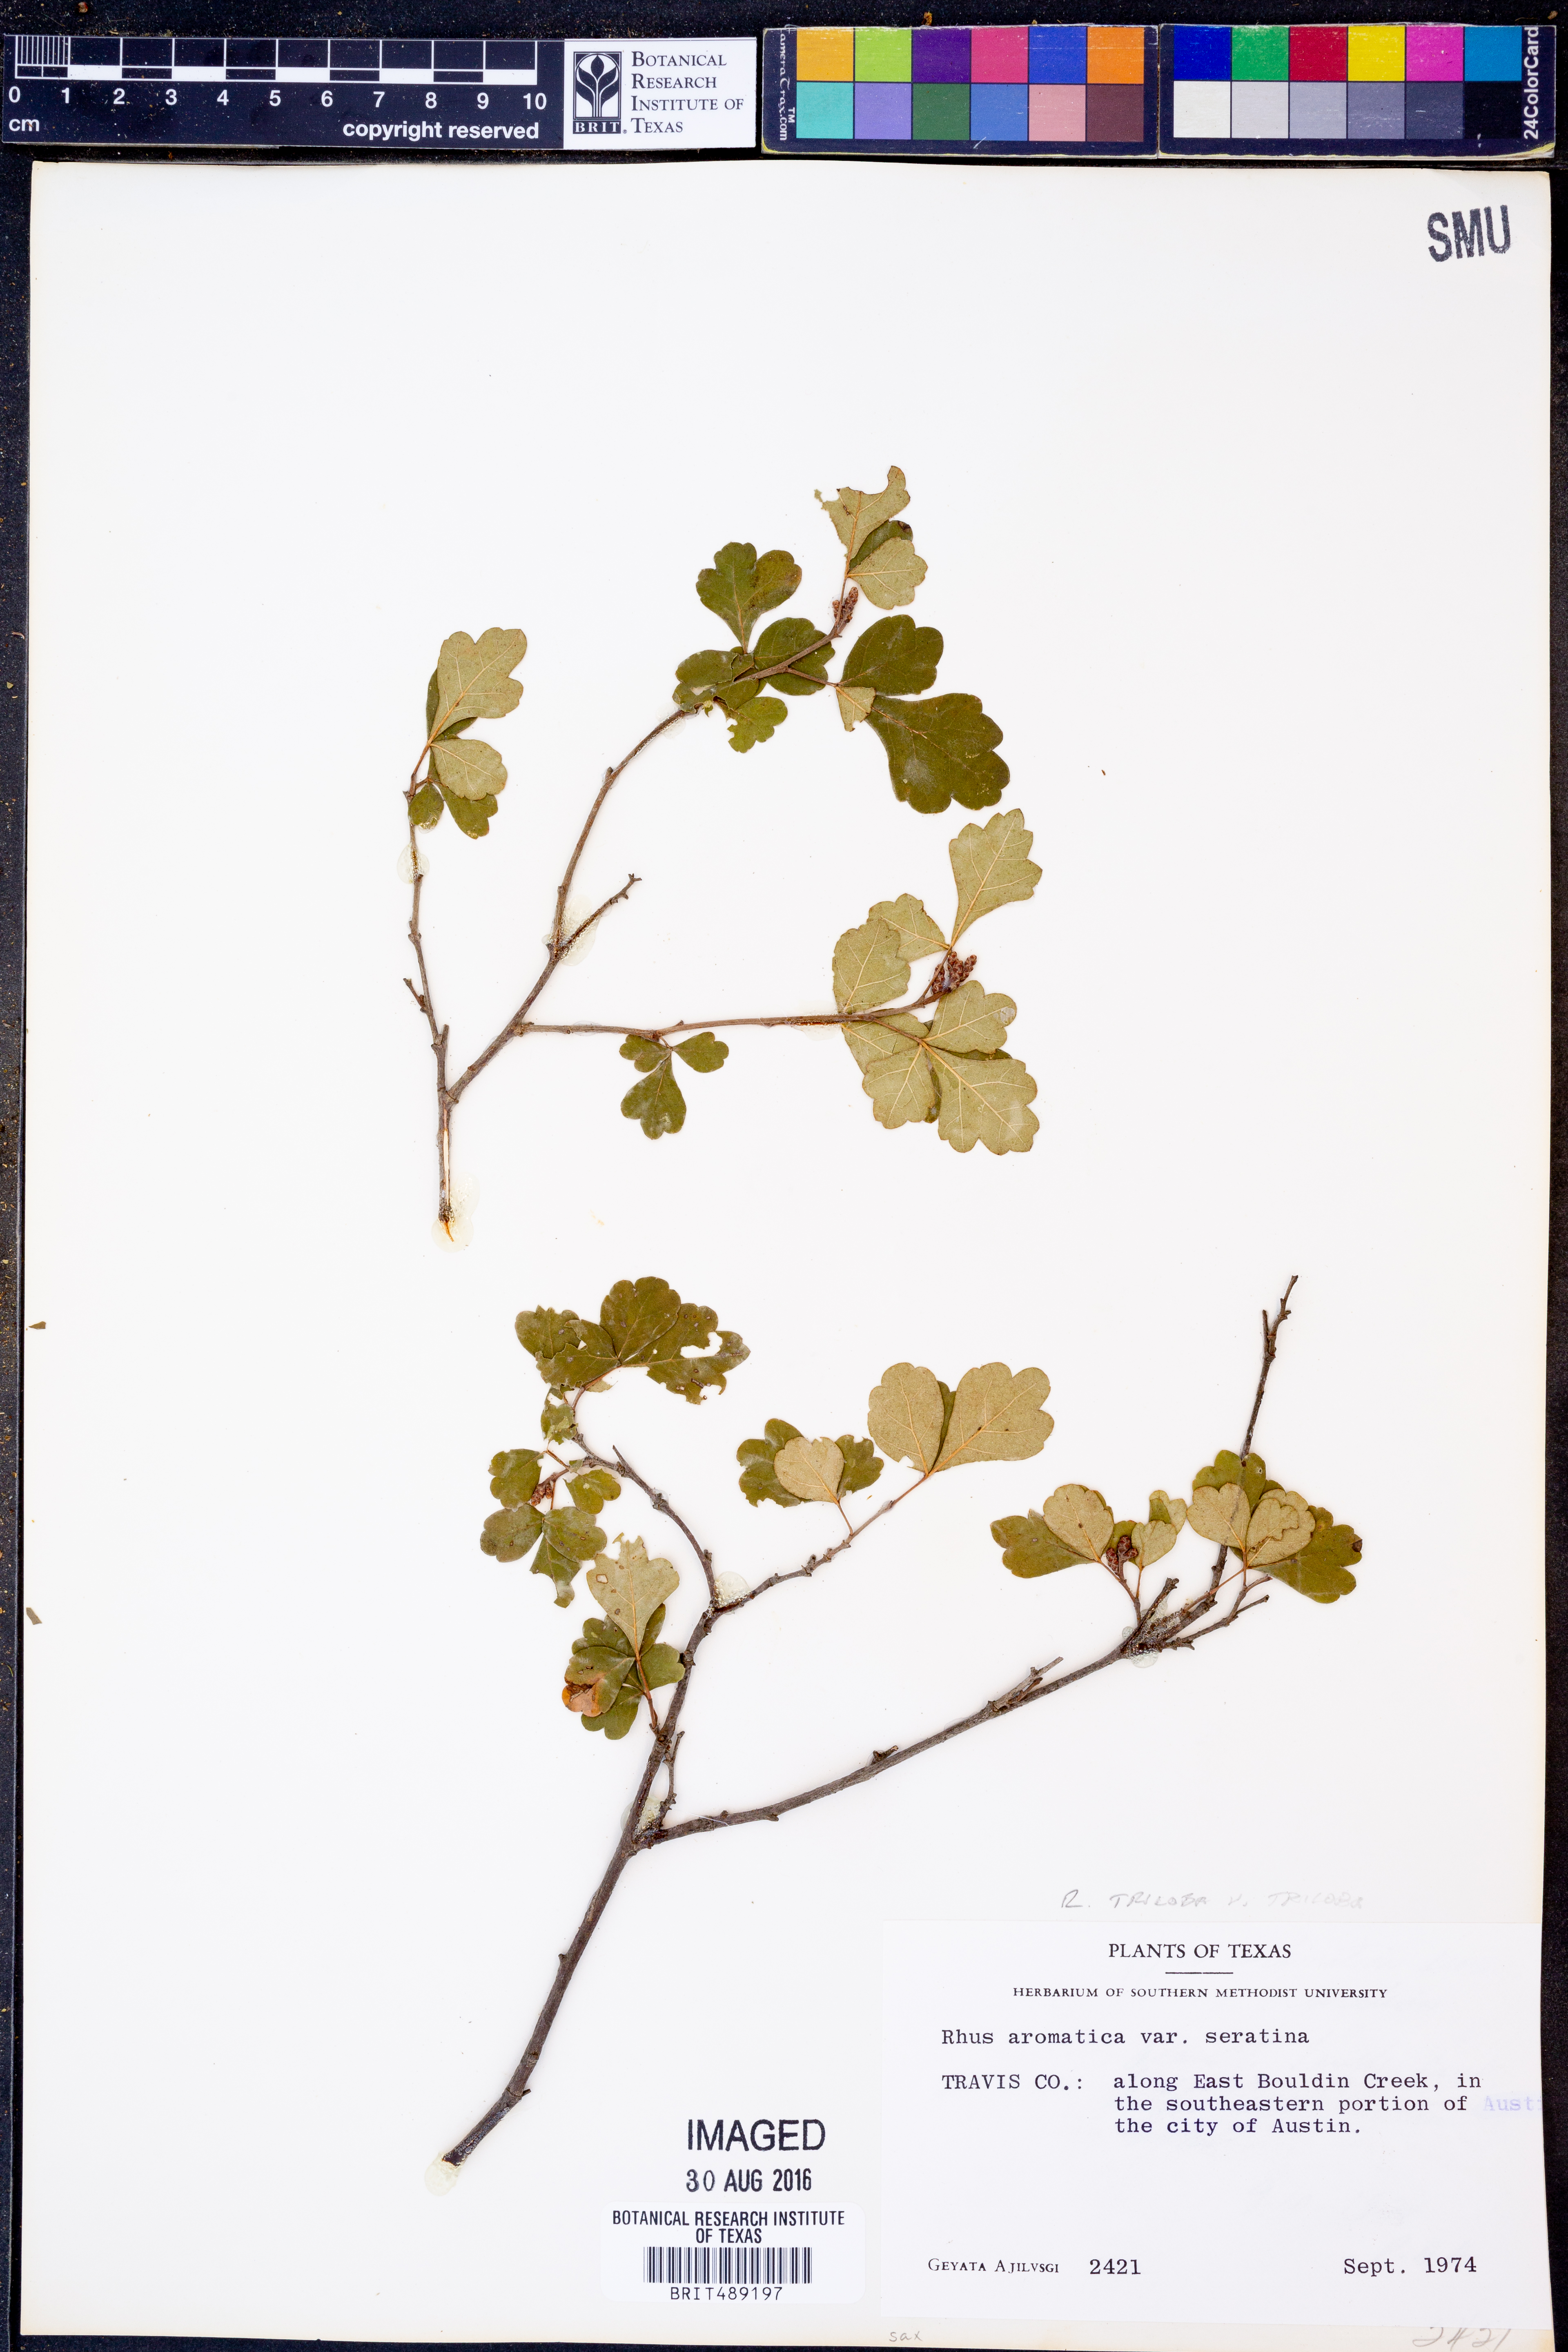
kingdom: Plantae
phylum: Tracheophyta
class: Magnoliopsida
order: Sapindales
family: Anacardiaceae
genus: Rhus
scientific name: Rhus trilobata
